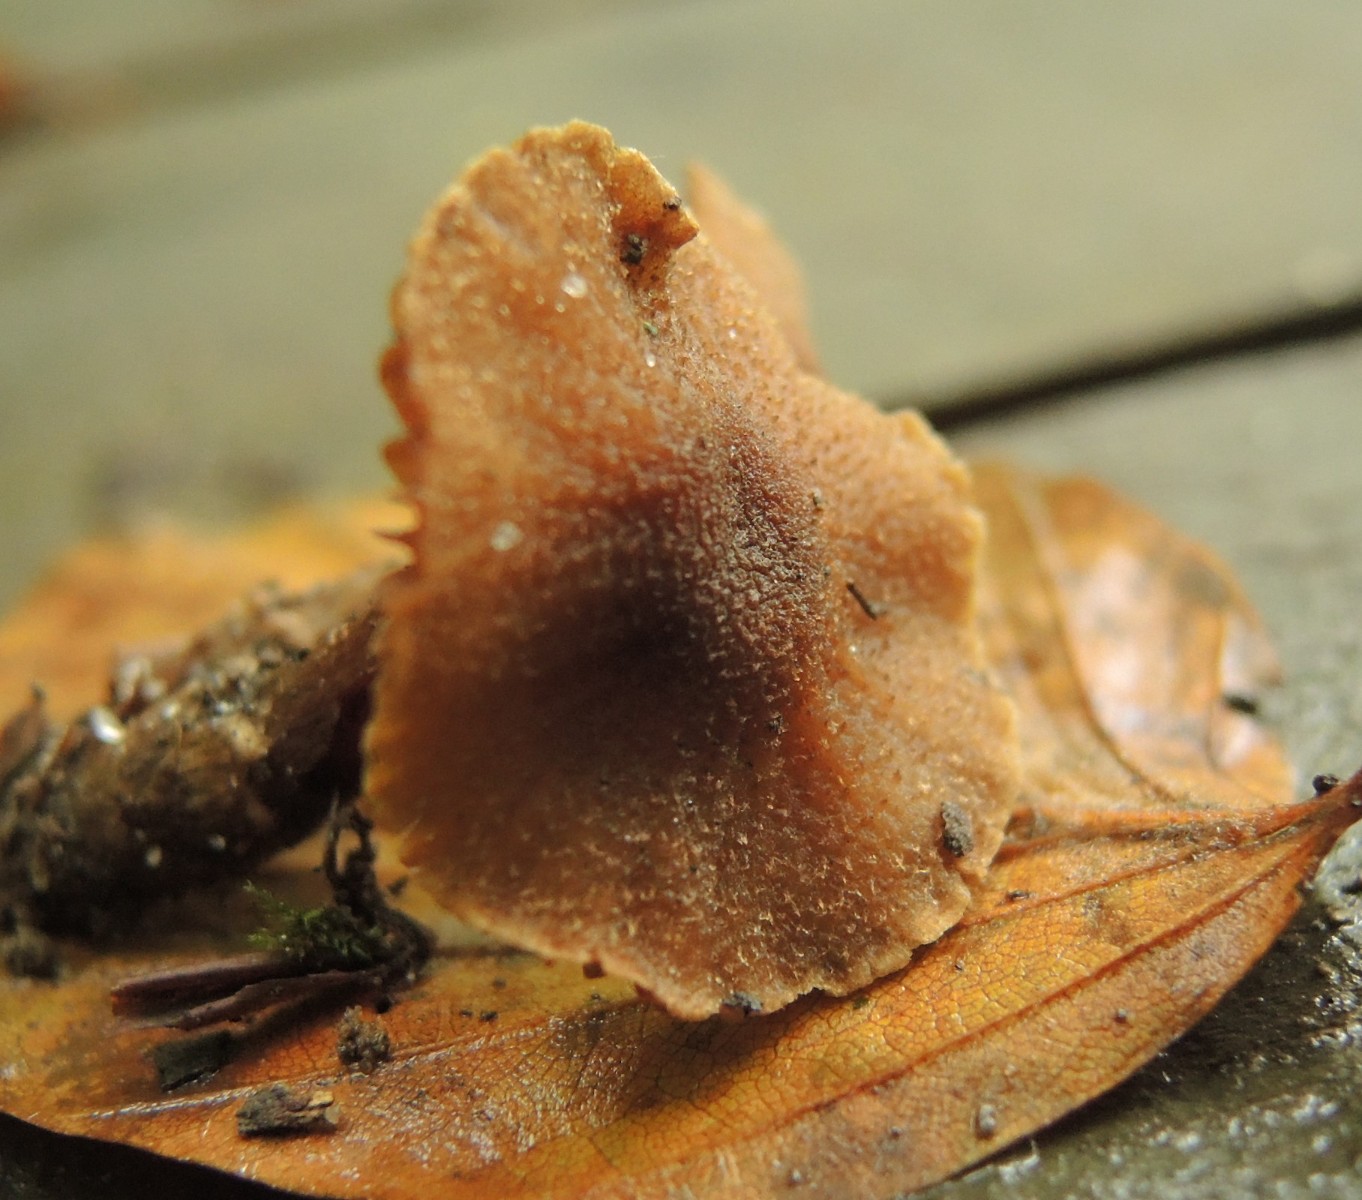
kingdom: Fungi
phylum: Basidiomycota
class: Agaricomycetes
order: Agaricales
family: Cortinariaceae
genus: Cortinarius
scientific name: Cortinarius
